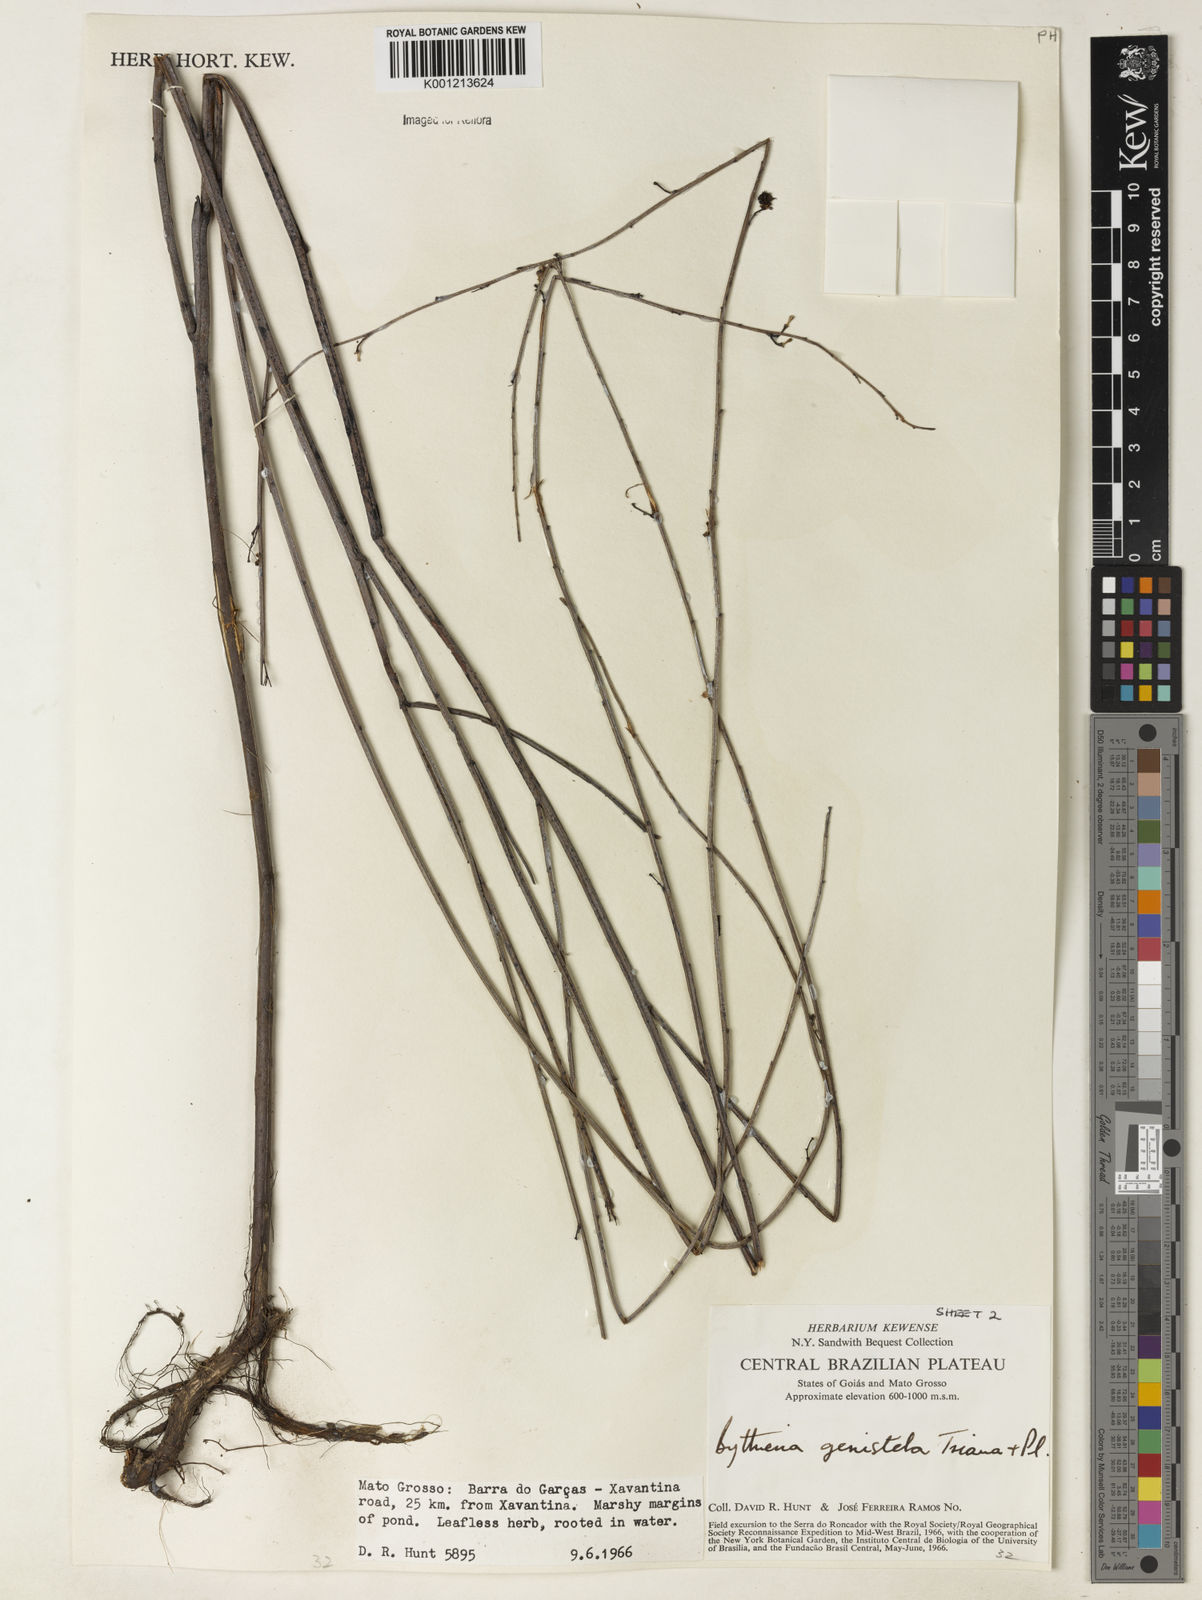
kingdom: Plantae
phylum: Tracheophyta
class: Magnoliopsida
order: Malvales
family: Malvaceae
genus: Byttneria
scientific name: Byttneria genistella
